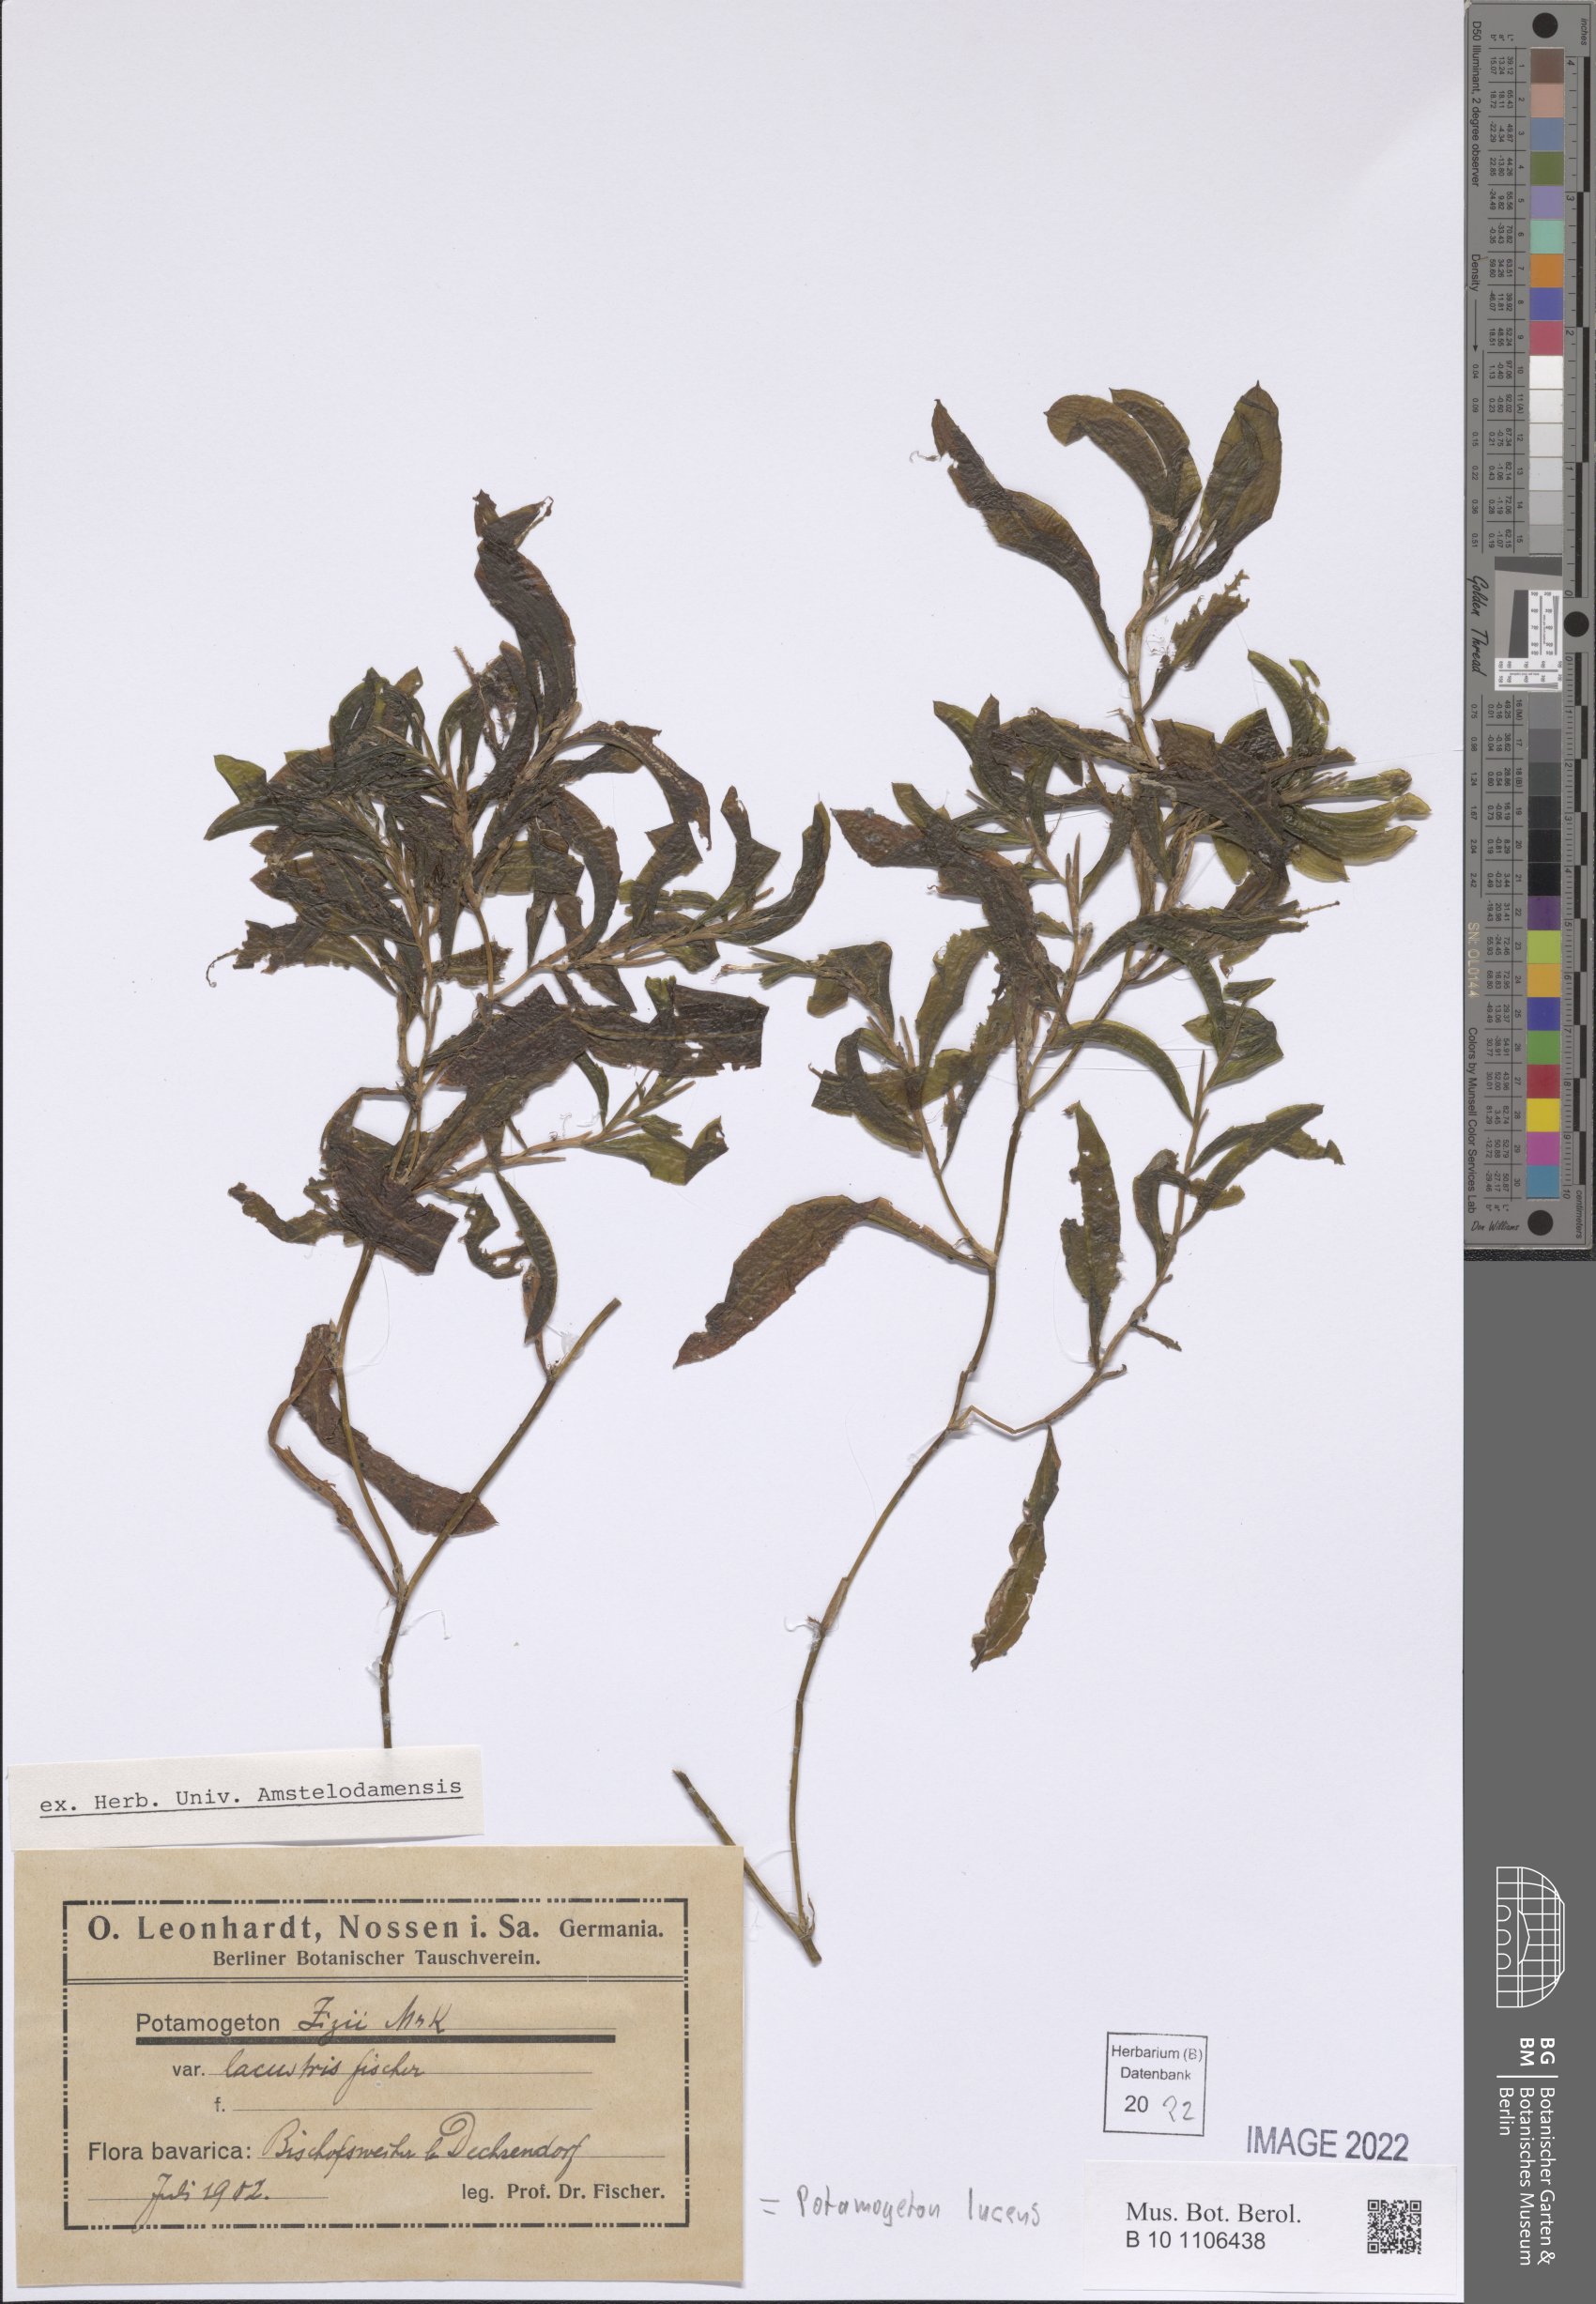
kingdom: Plantae
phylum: Tracheophyta
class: Liliopsida
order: Alismatales
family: Potamogetonaceae
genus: Potamogeton
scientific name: Potamogeton lucens
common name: Shining pondweed
